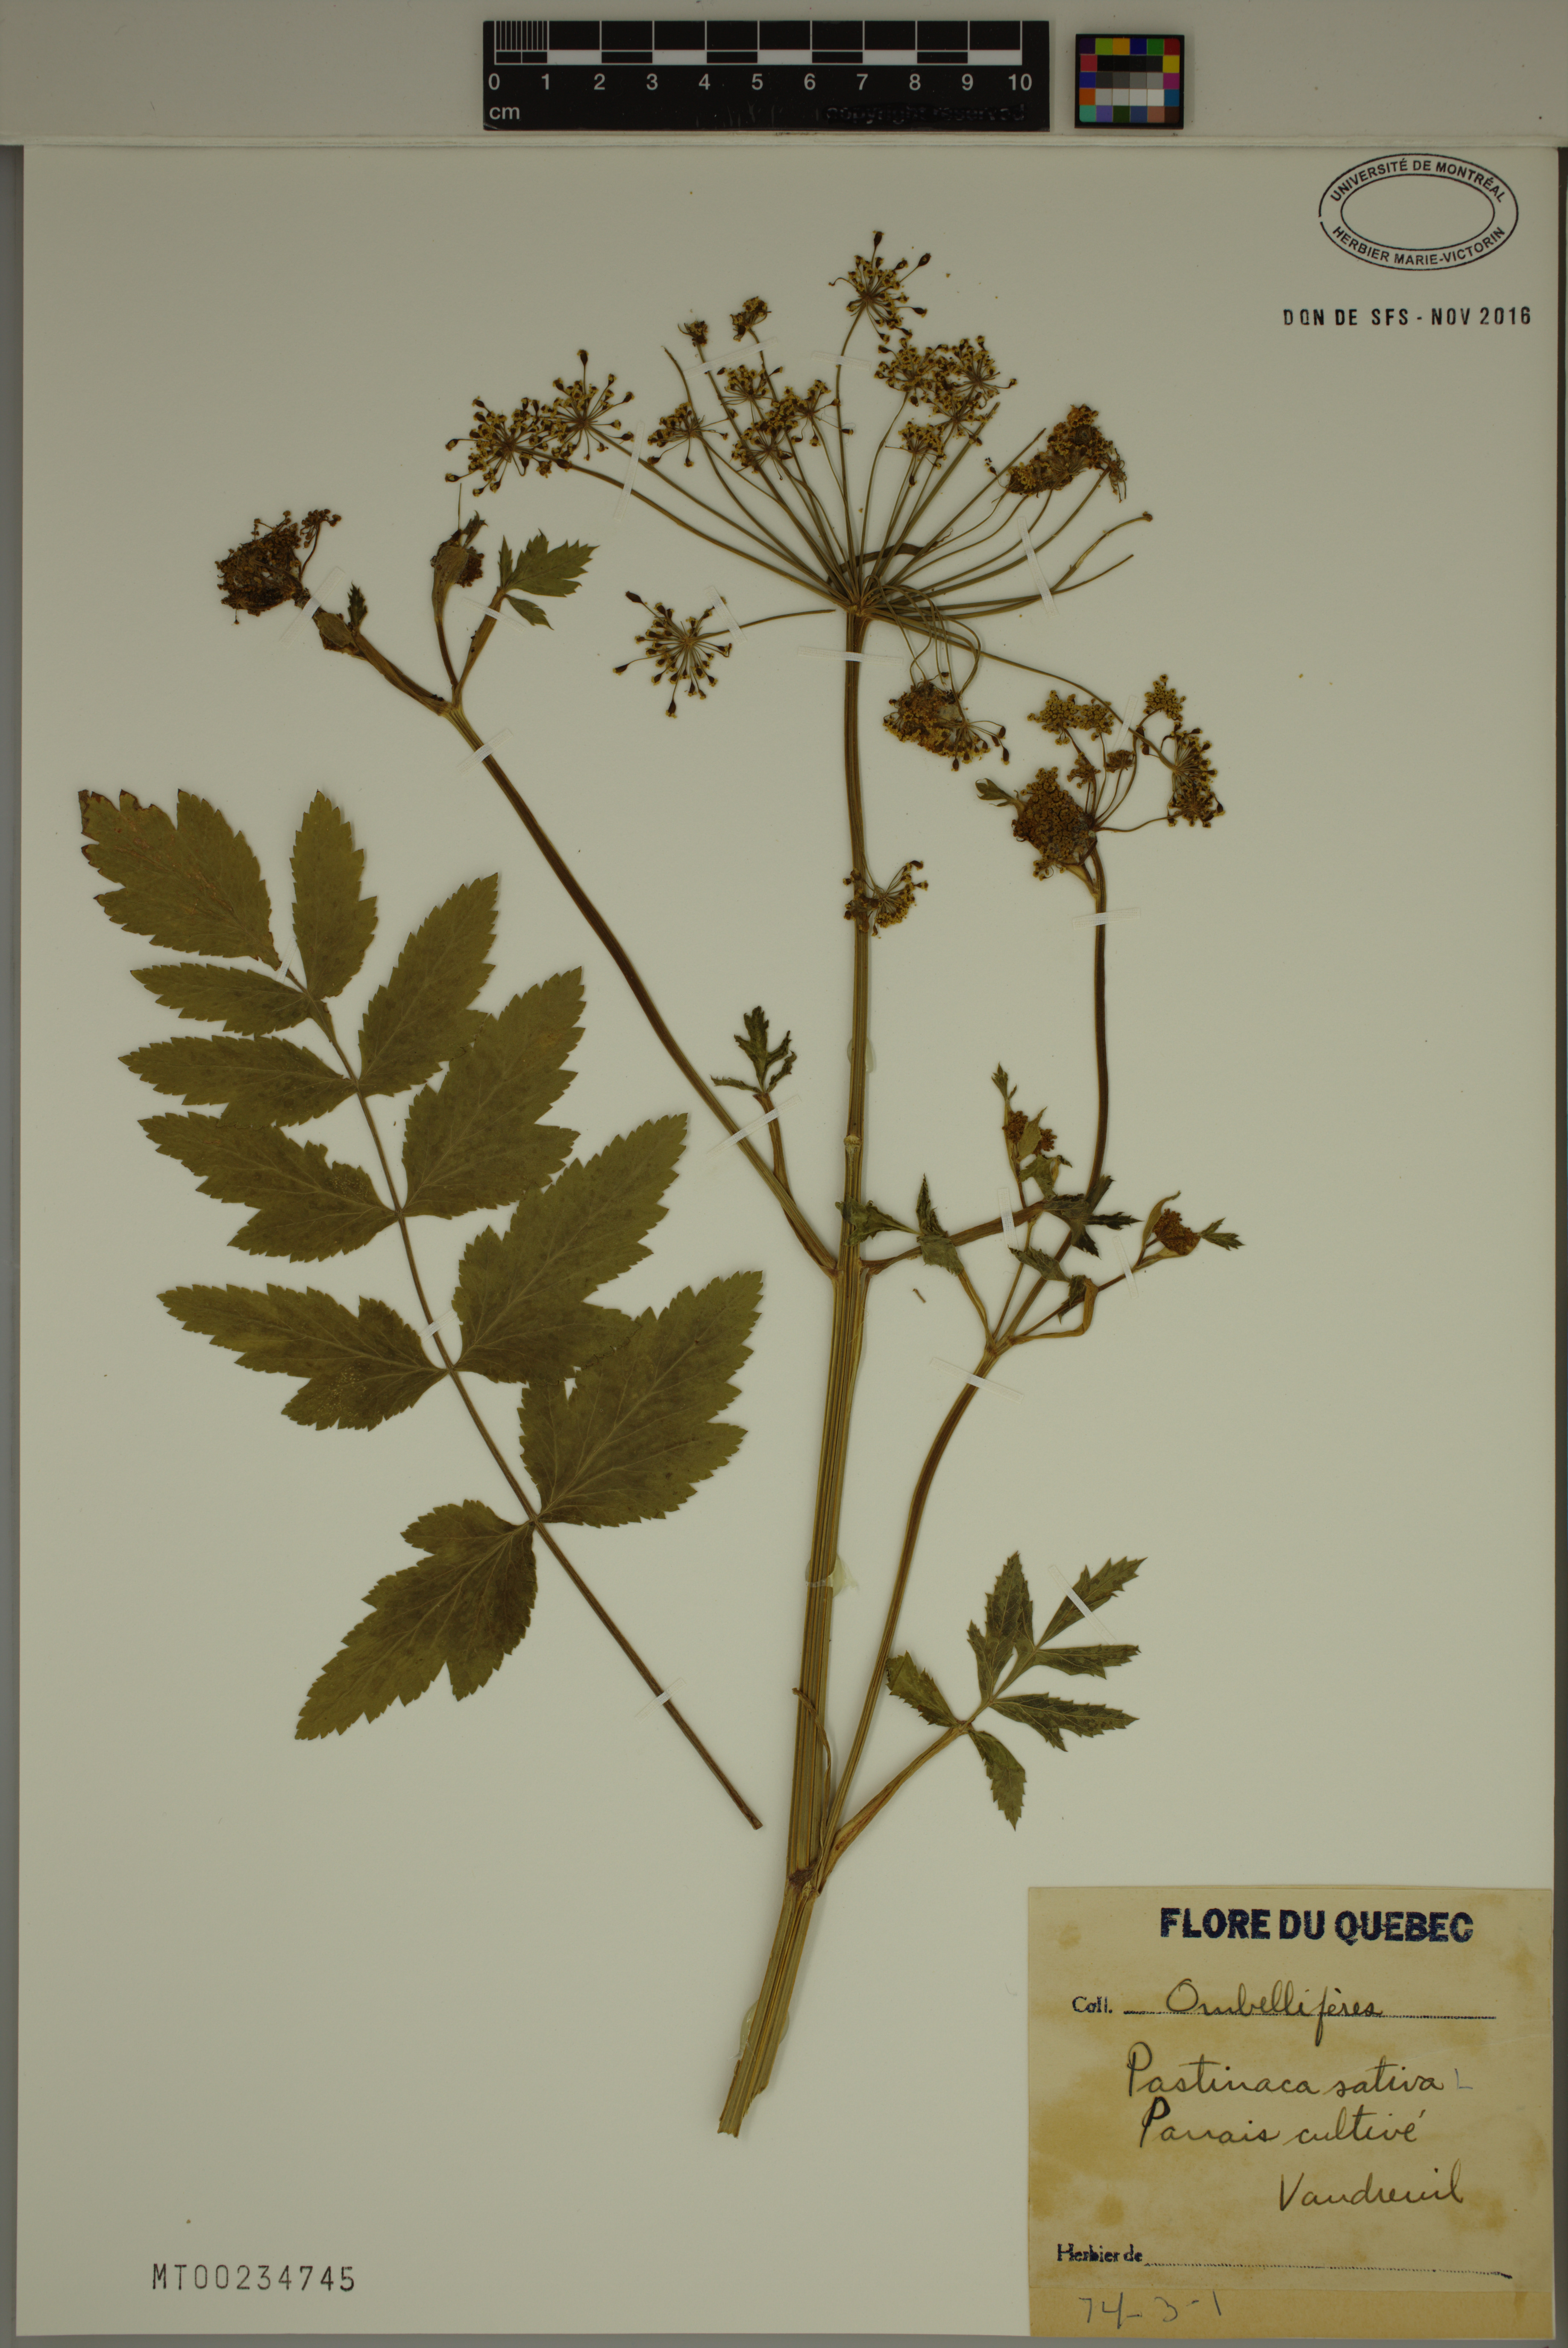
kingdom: Plantae
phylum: Tracheophyta
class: Magnoliopsida
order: Apiales
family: Apiaceae
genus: Pastinaca
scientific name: Pastinaca sativa
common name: Wild parsnip
